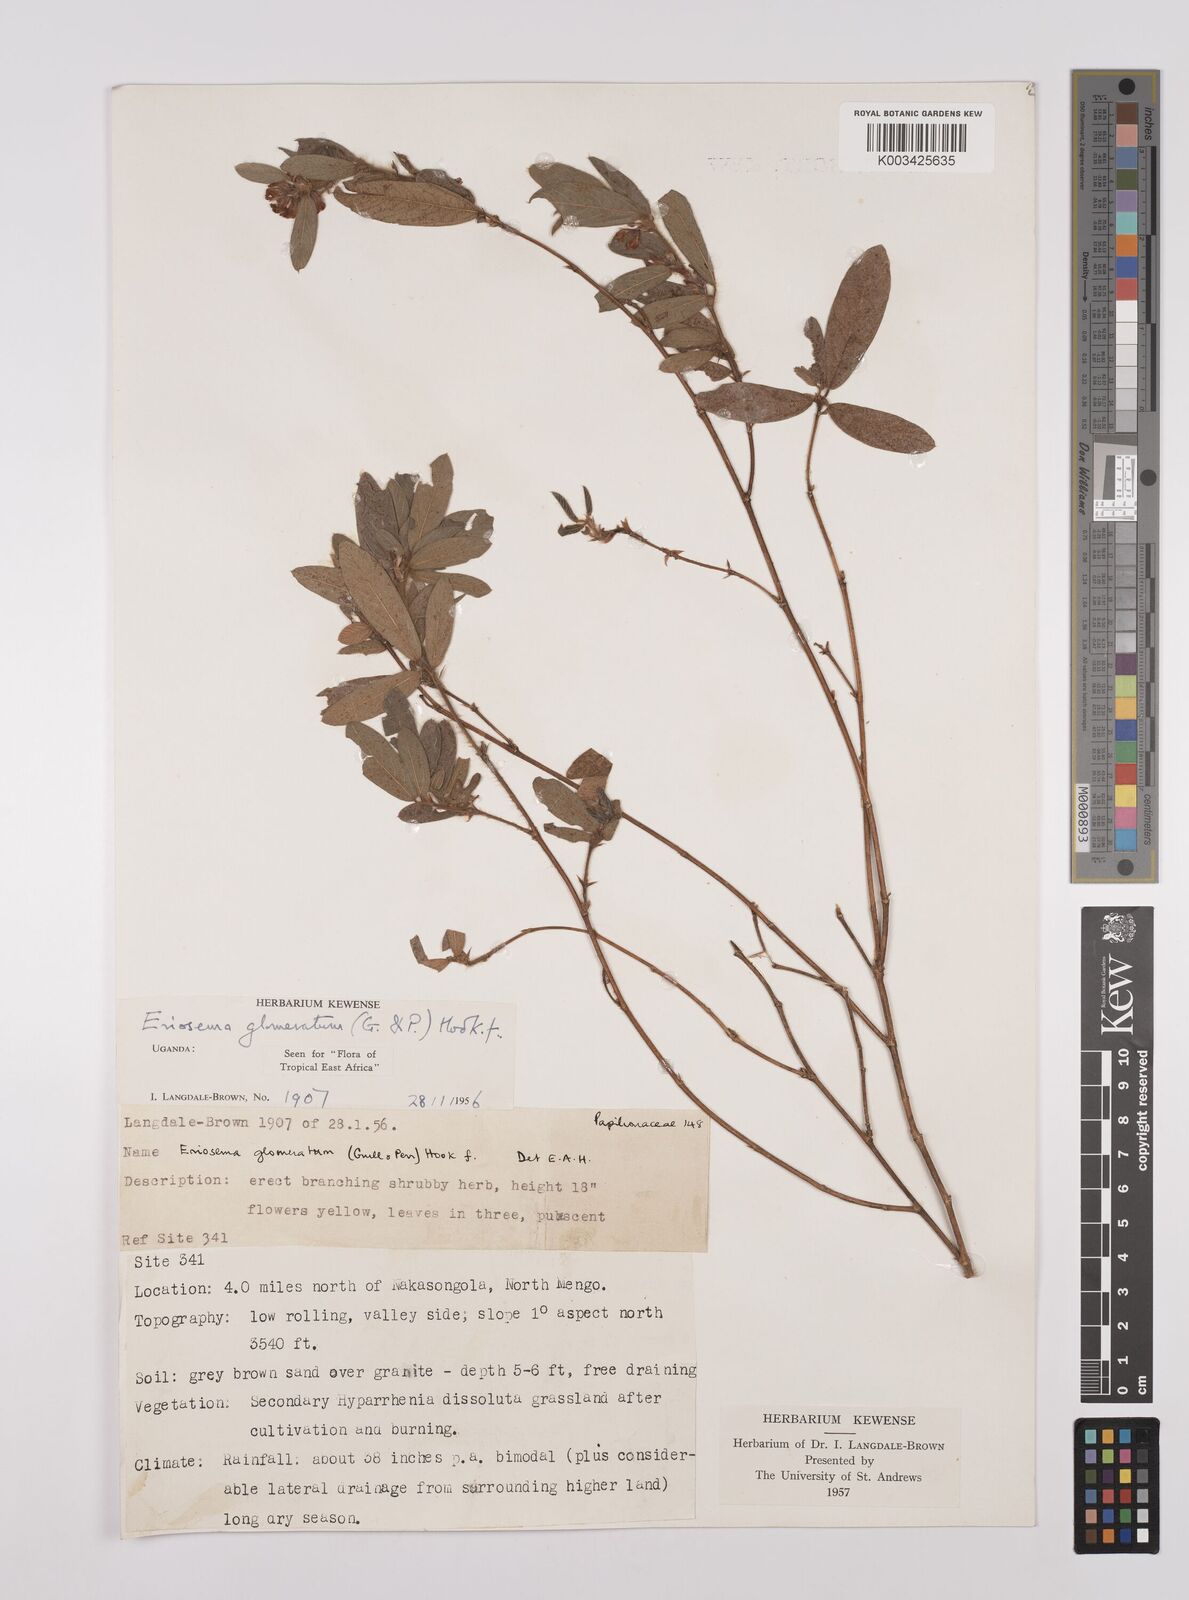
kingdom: Plantae
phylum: Tracheophyta
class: Magnoliopsida
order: Fabales
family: Fabaceae
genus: Eriosema
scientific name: Eriosema glomeratum
